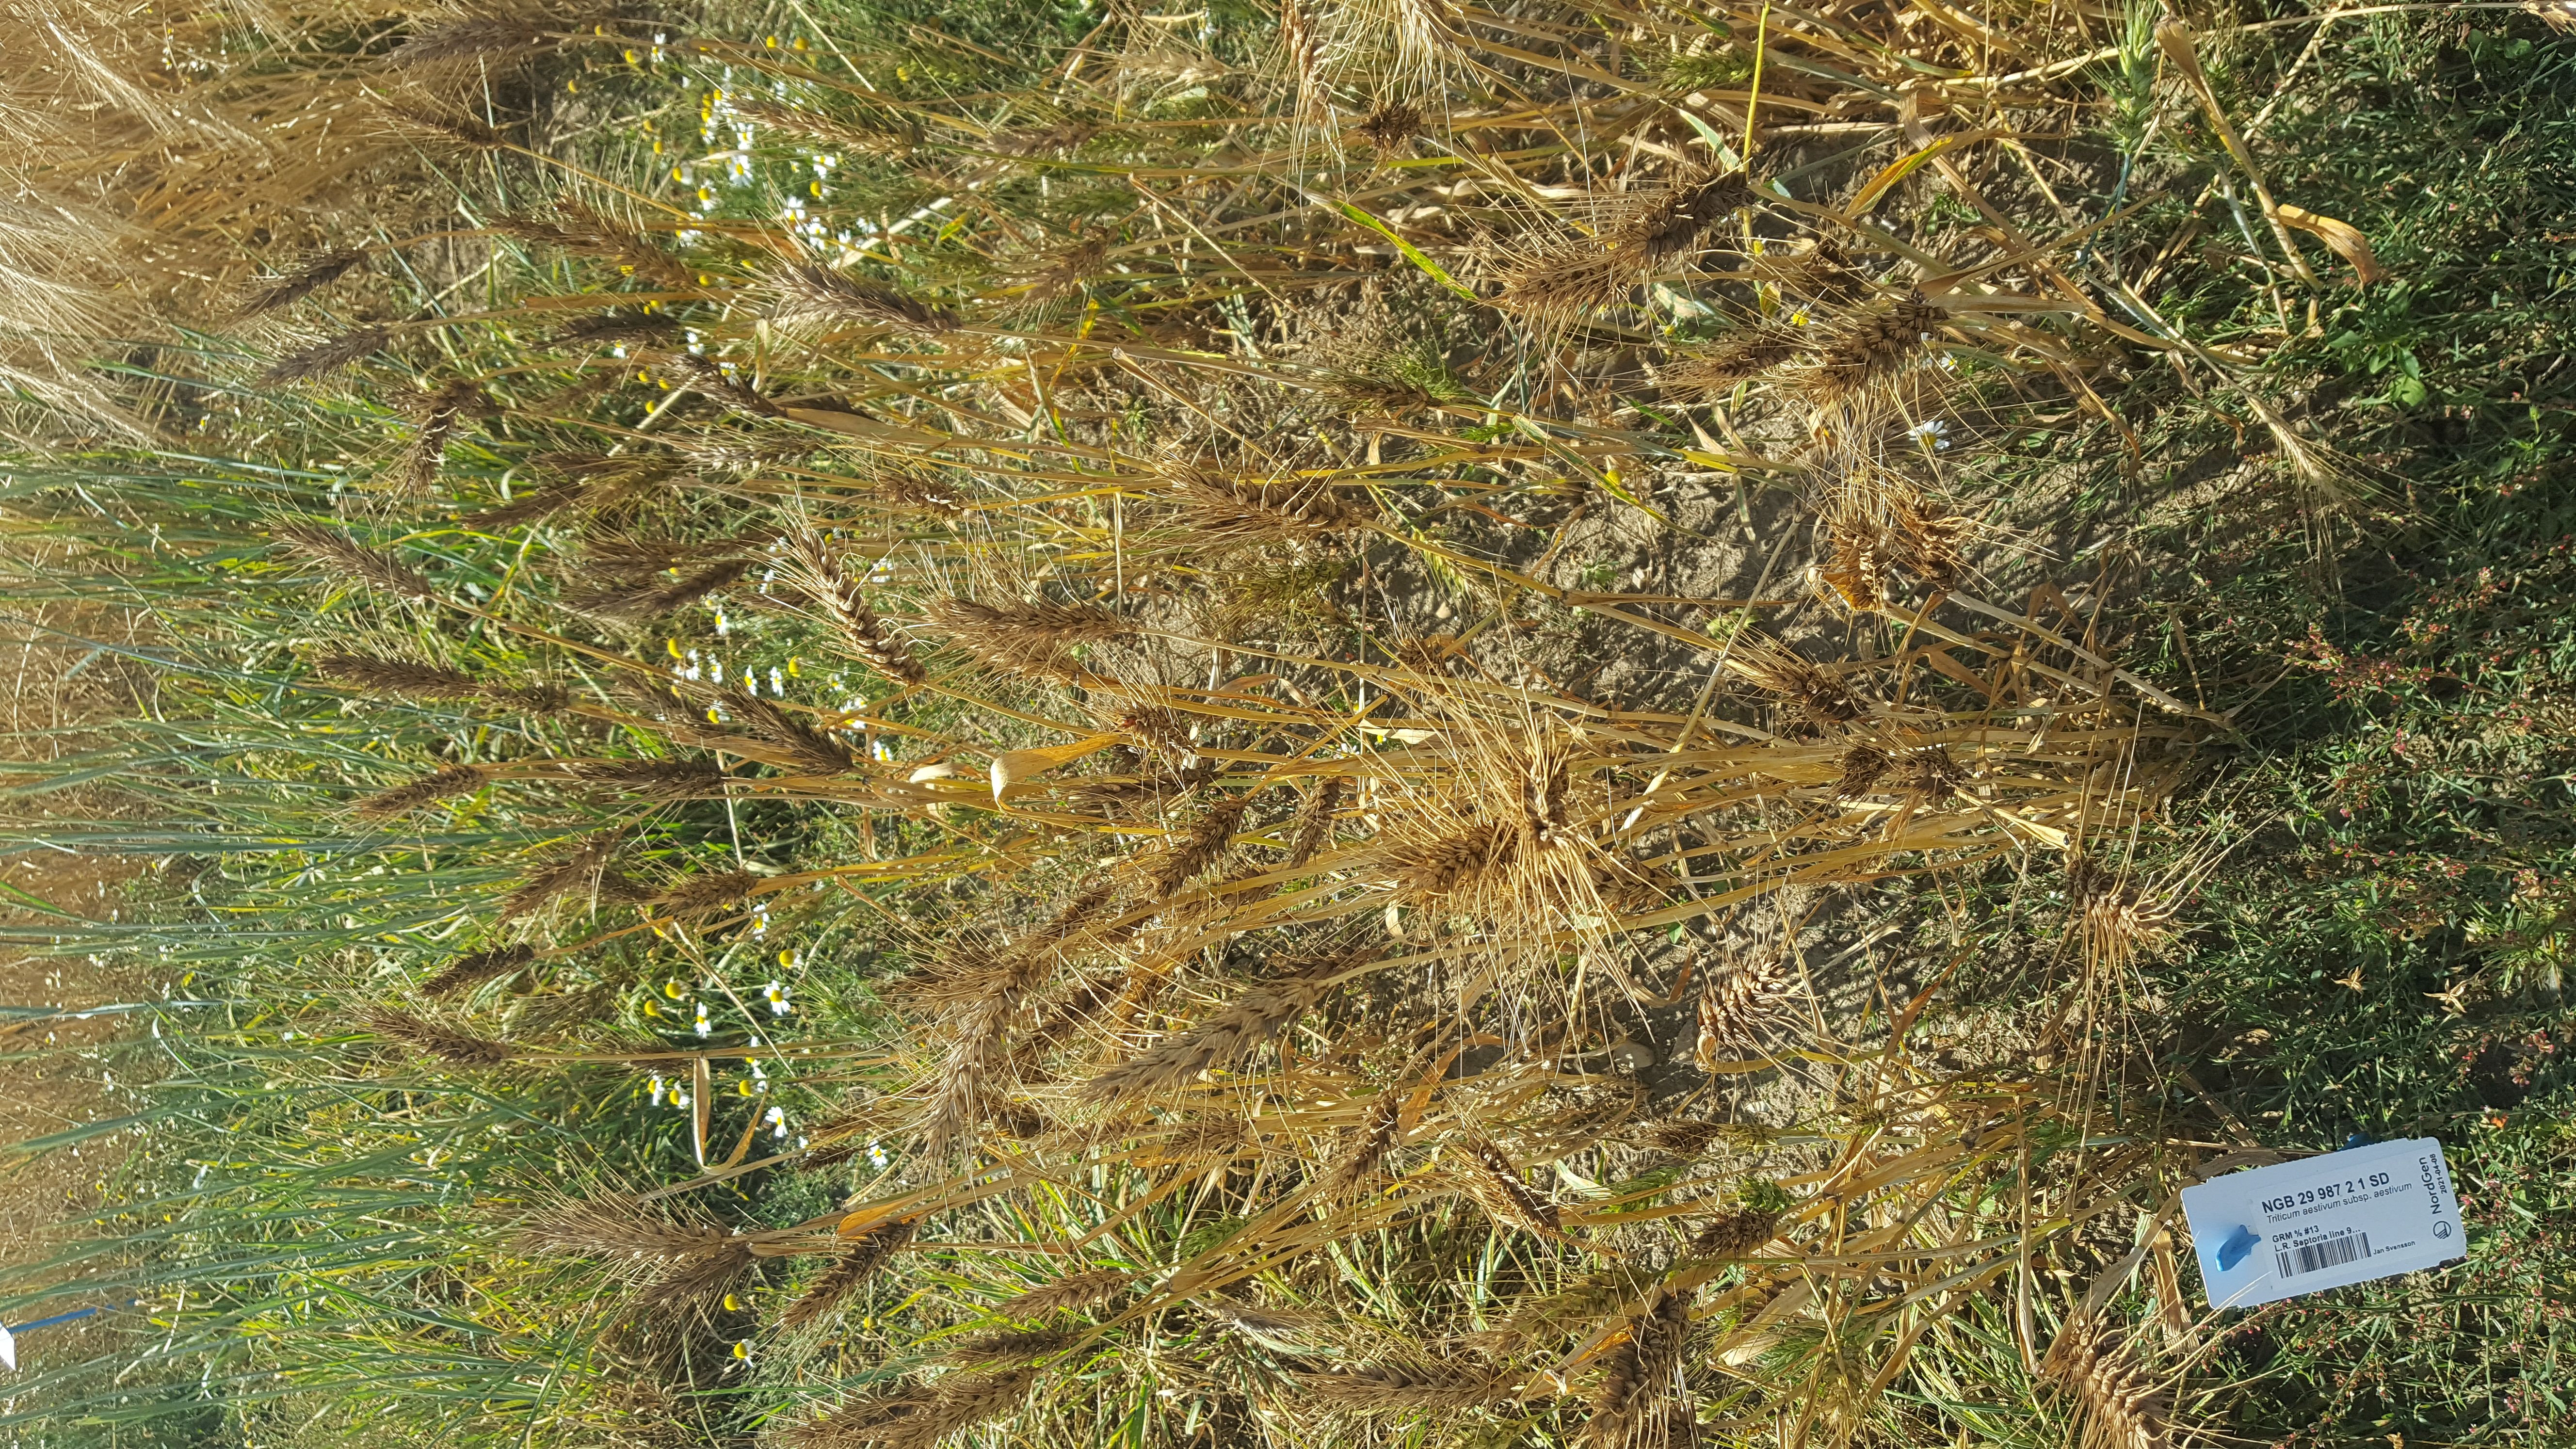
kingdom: Plantae
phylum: Tracheophyta
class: Liliopsida
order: Poales
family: Poaceae
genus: Triticum
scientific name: Triticum aestivum
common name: Common wheat
